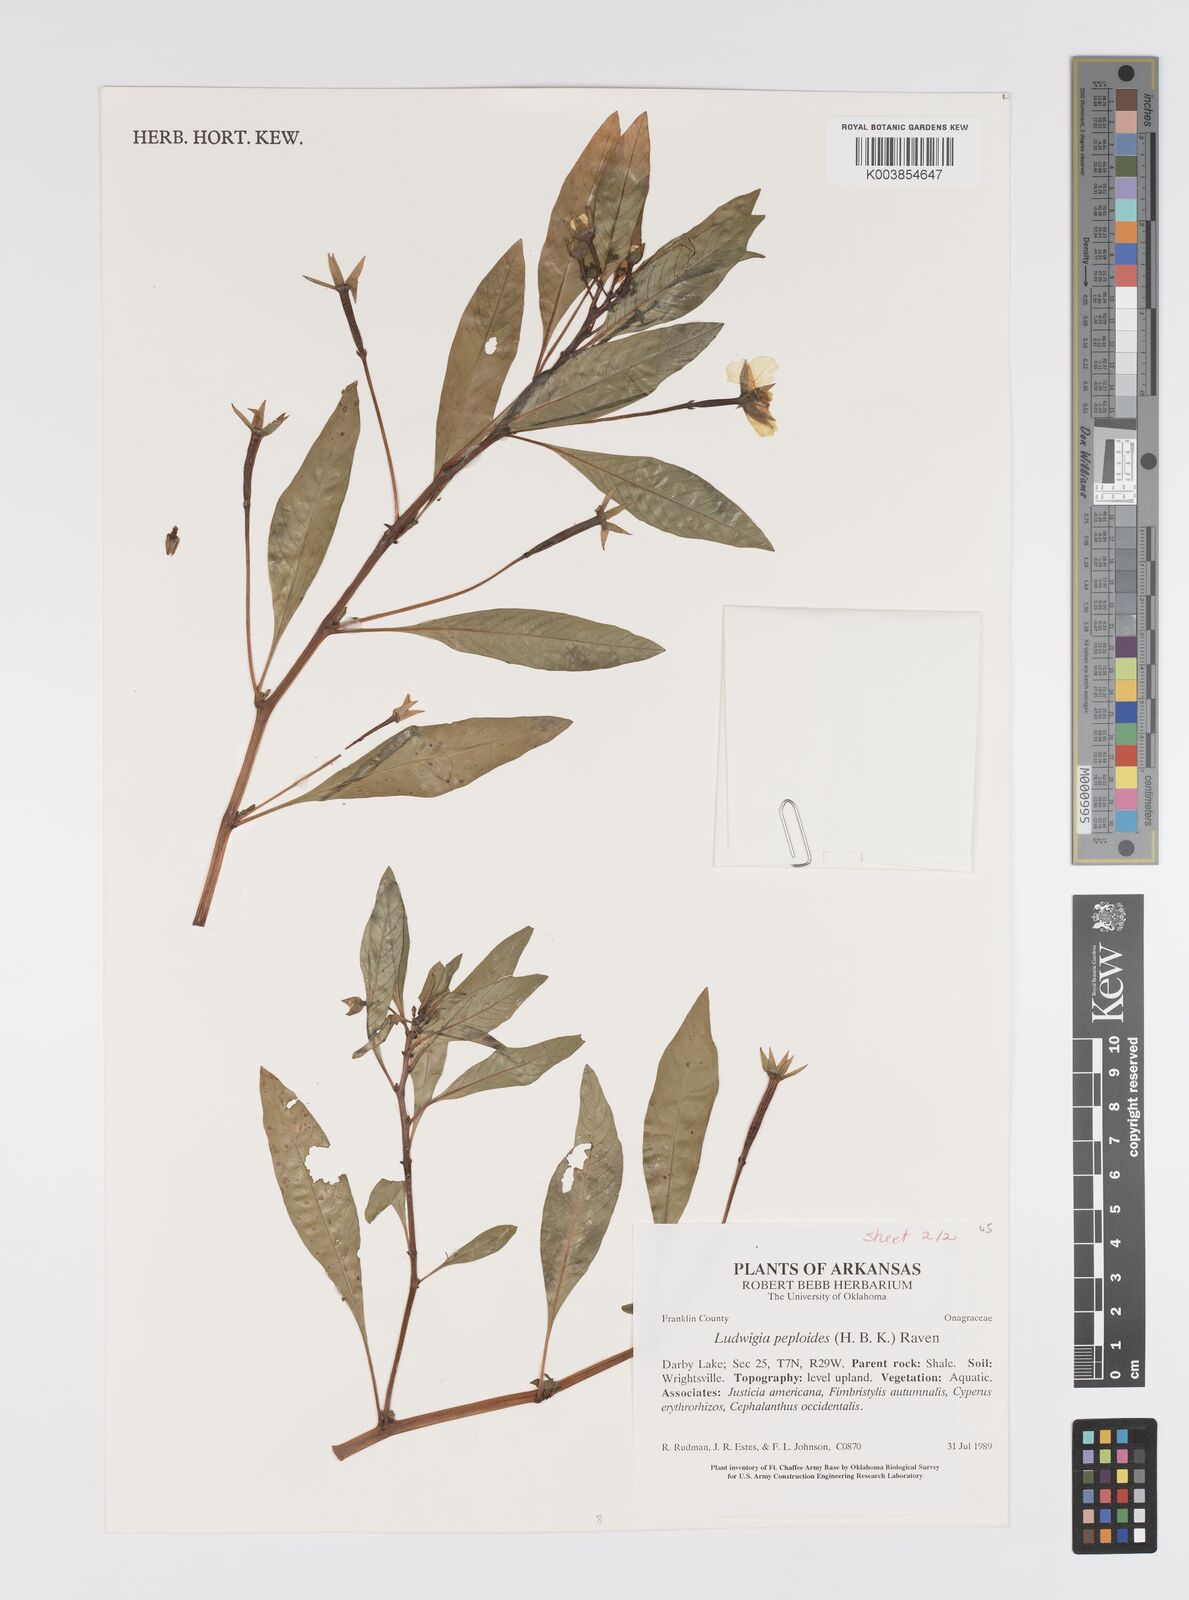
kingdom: Plantae
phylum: Tracheophyta
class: Magnoliopsida
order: Myrtales
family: Onagraceae
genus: Ludwigia
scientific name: Ludwigia peploides
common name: Floating primrose-willow
